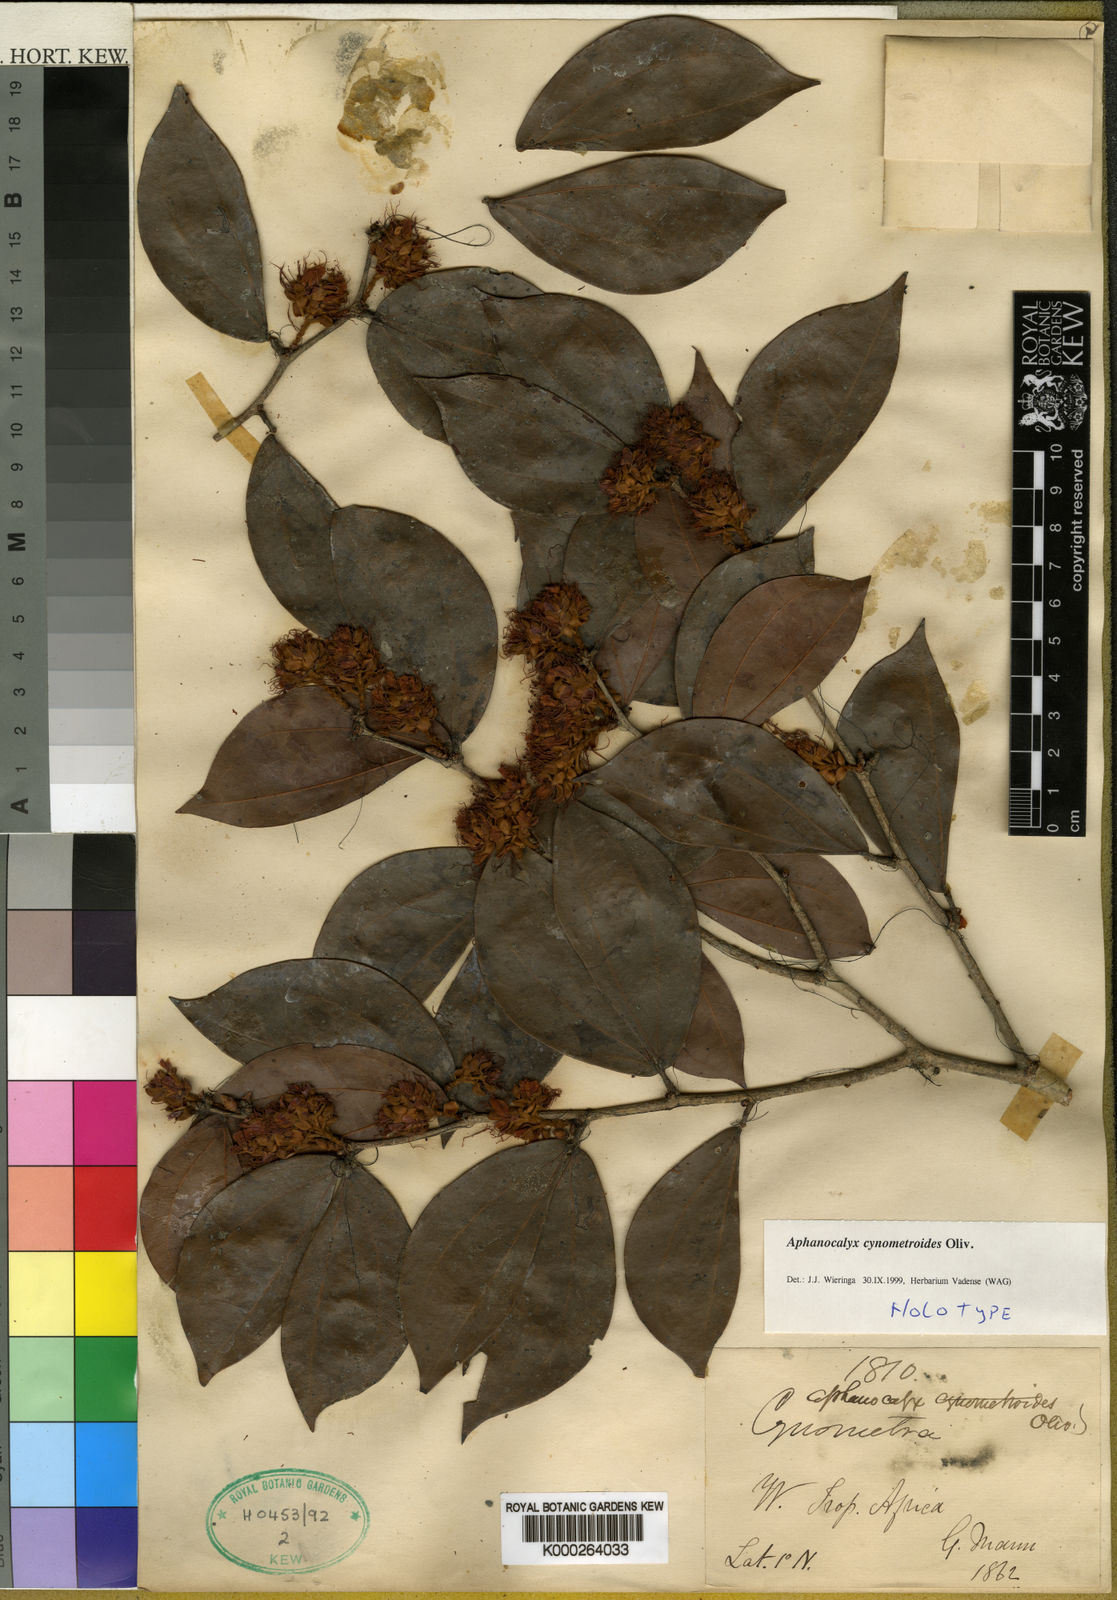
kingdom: Plantae
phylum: Tracheophyta
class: Magnoliopsida
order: Fabales
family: Fabaceae
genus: Aphanocalyx
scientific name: Aphanocalyx cynometroides
